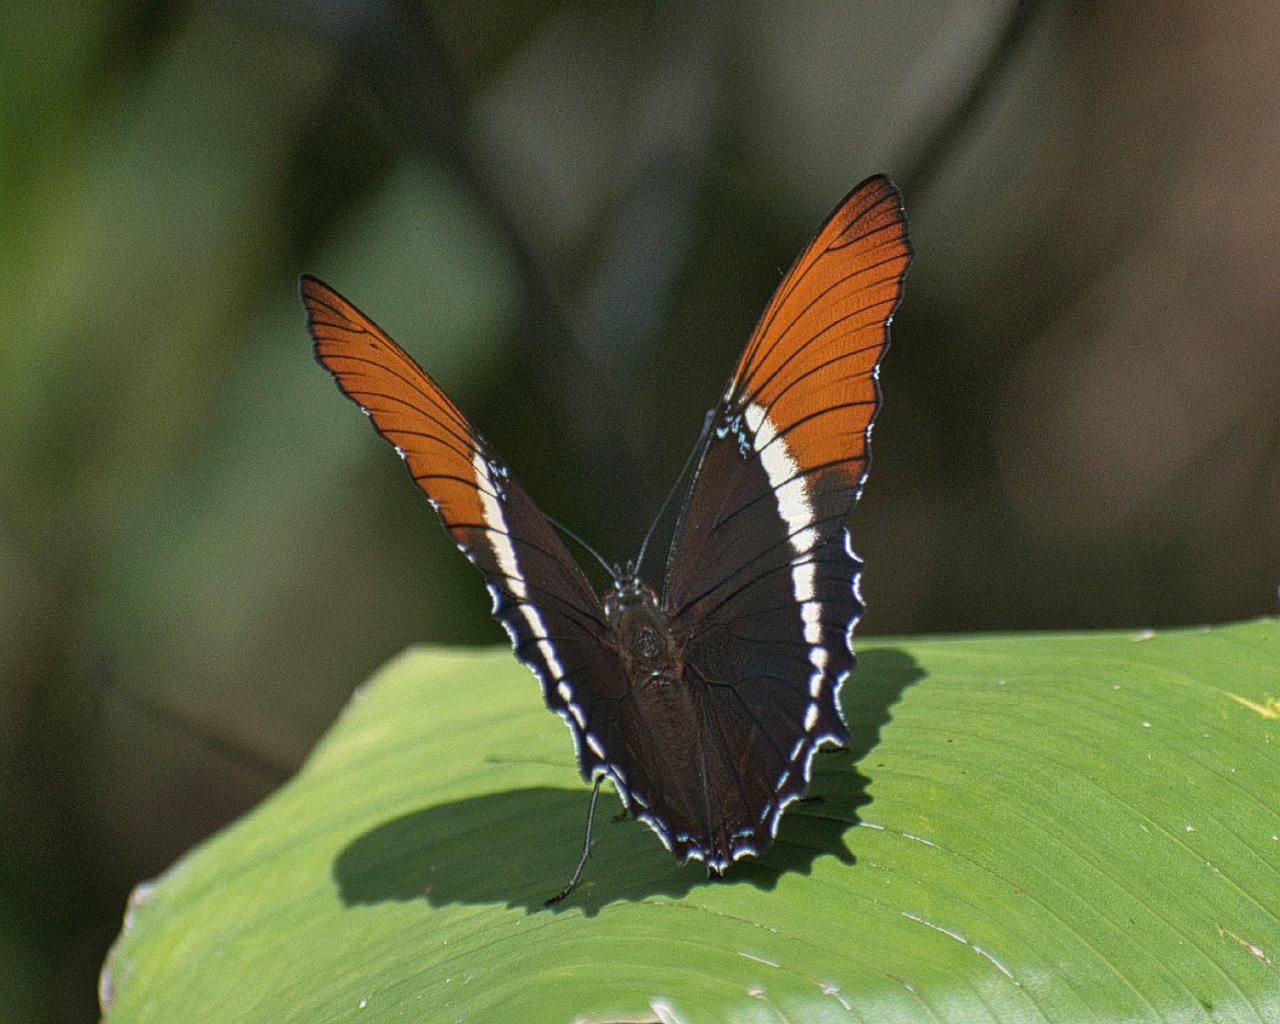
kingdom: Animalia
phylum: Arthropoda
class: Insecta
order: Lepidoptera
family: Nymphalidae
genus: Siproeta
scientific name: Siproeta epaphus
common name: Rusty-tipped Page
